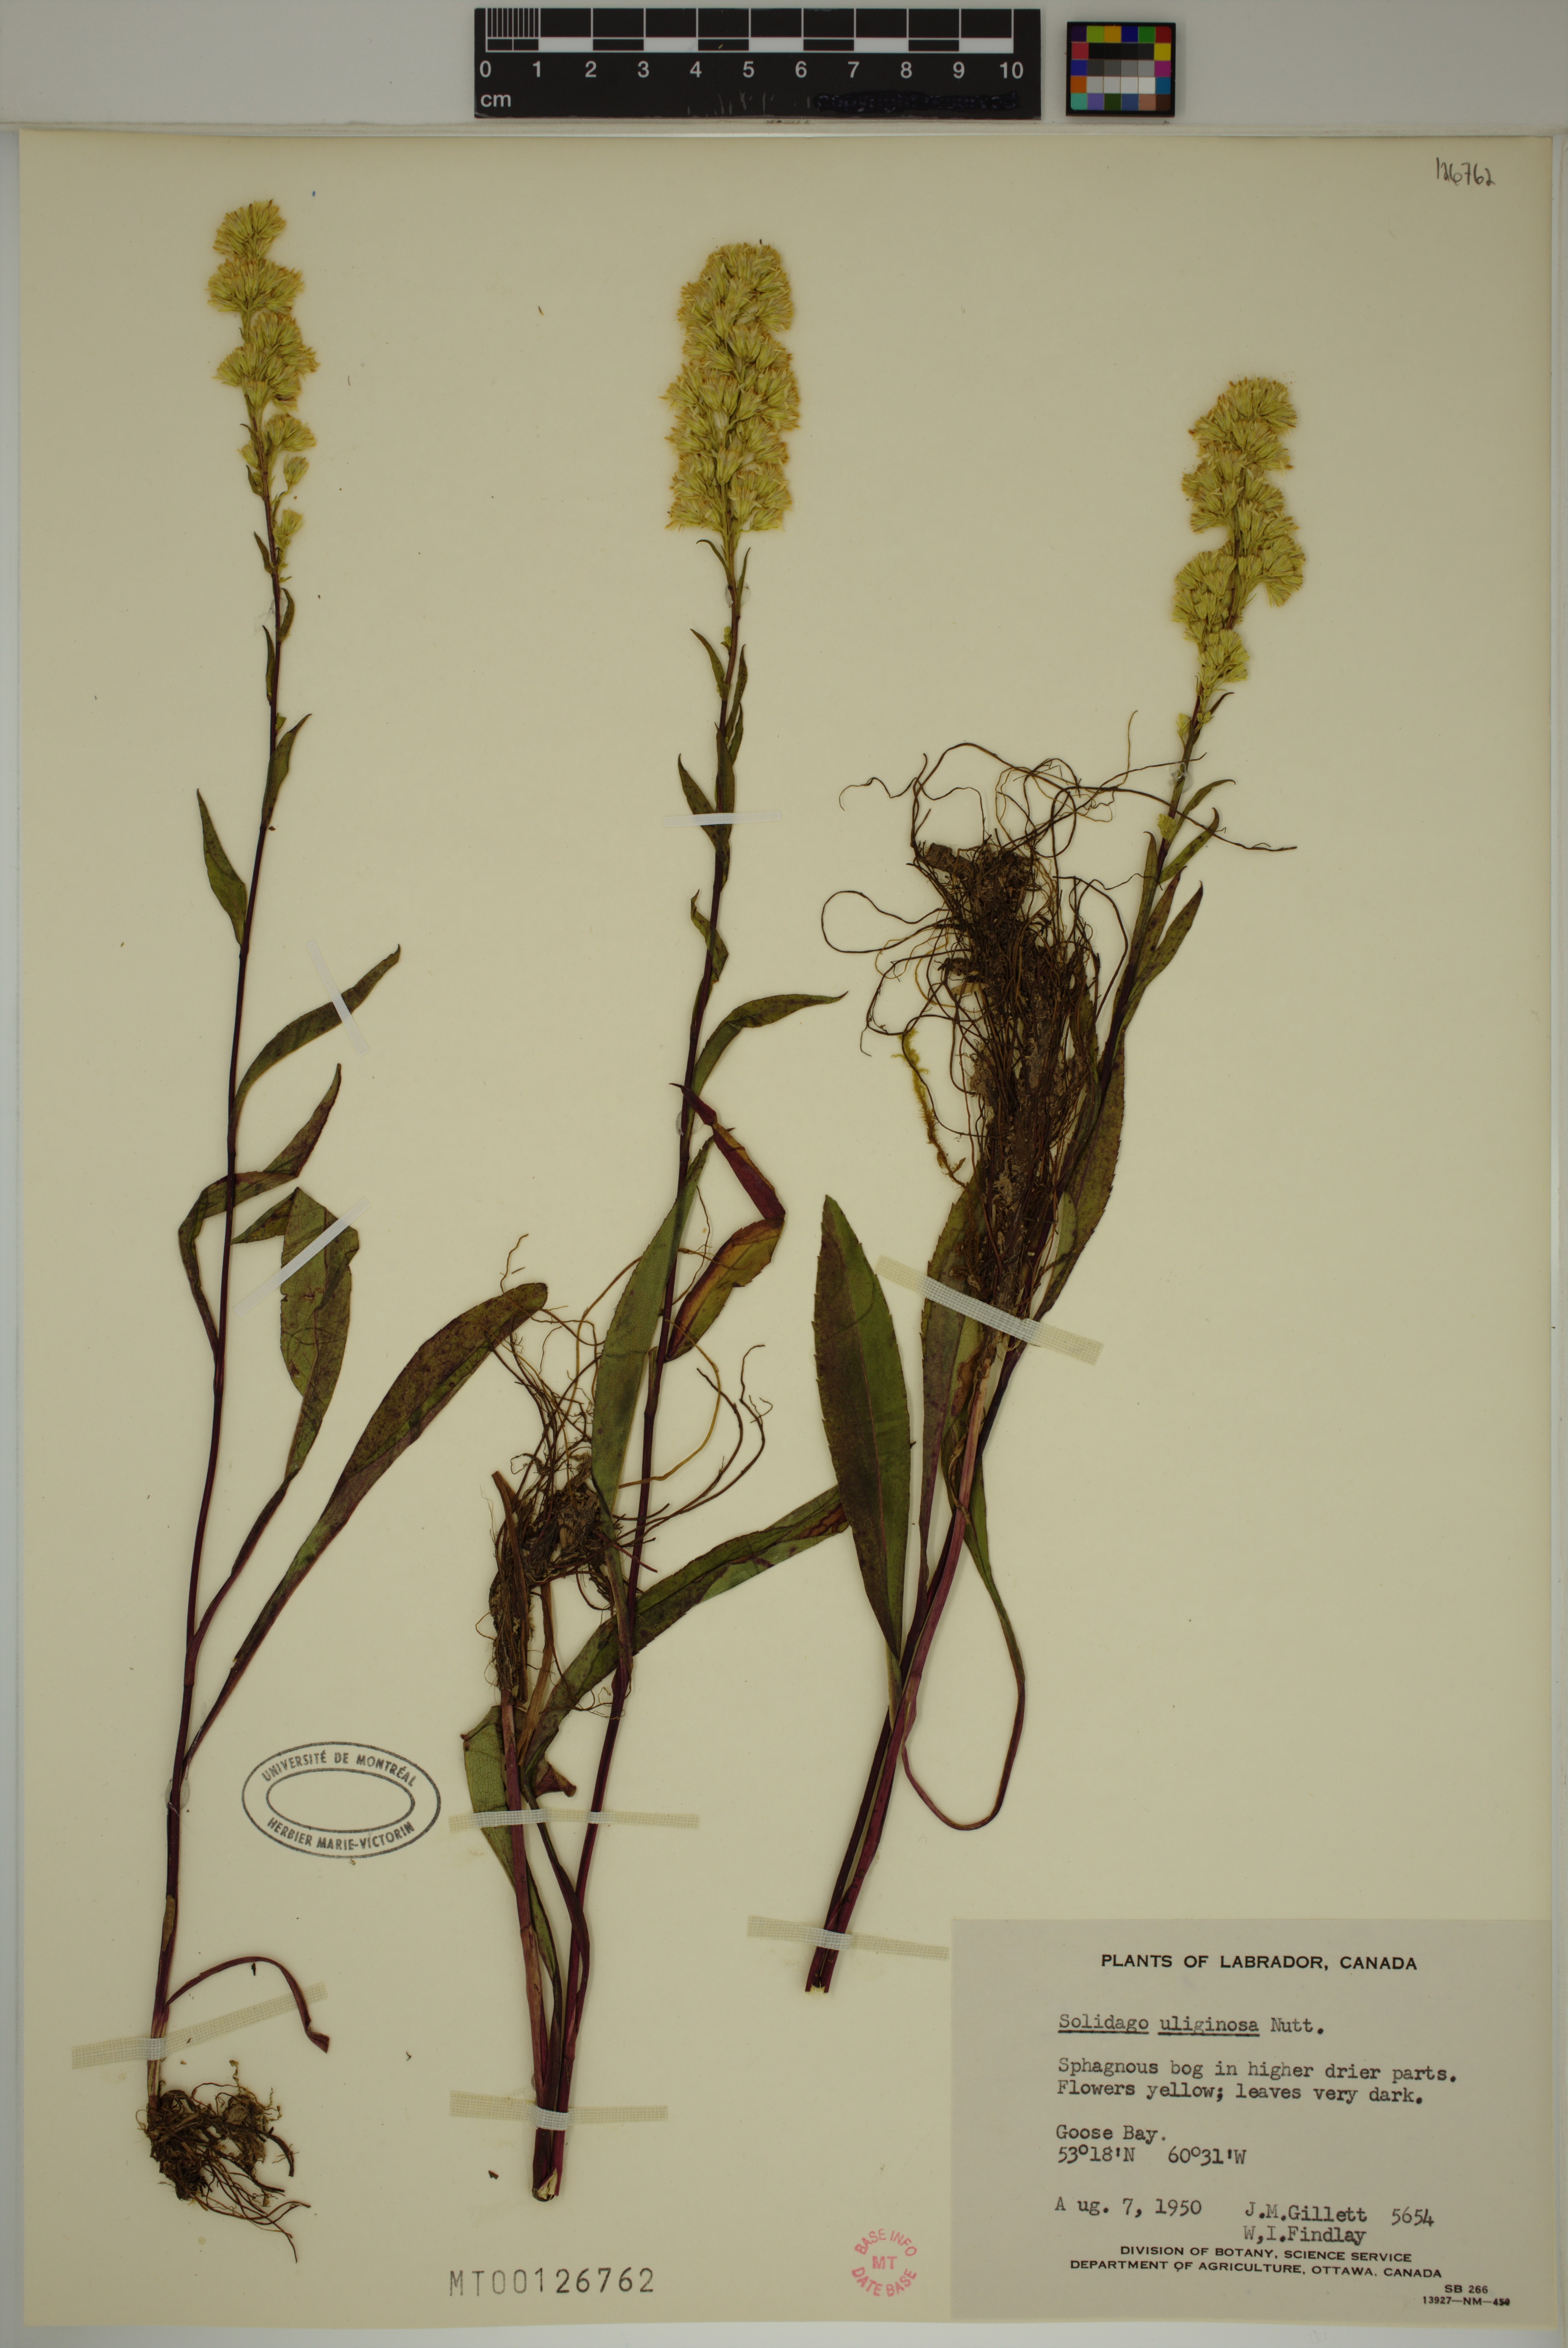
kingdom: Plantae
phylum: Tracheophyta
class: Magnoliopsida
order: Asterales
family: Asteraceae
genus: Solidago
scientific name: Solidago uliginosa
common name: Bog goldenrod
